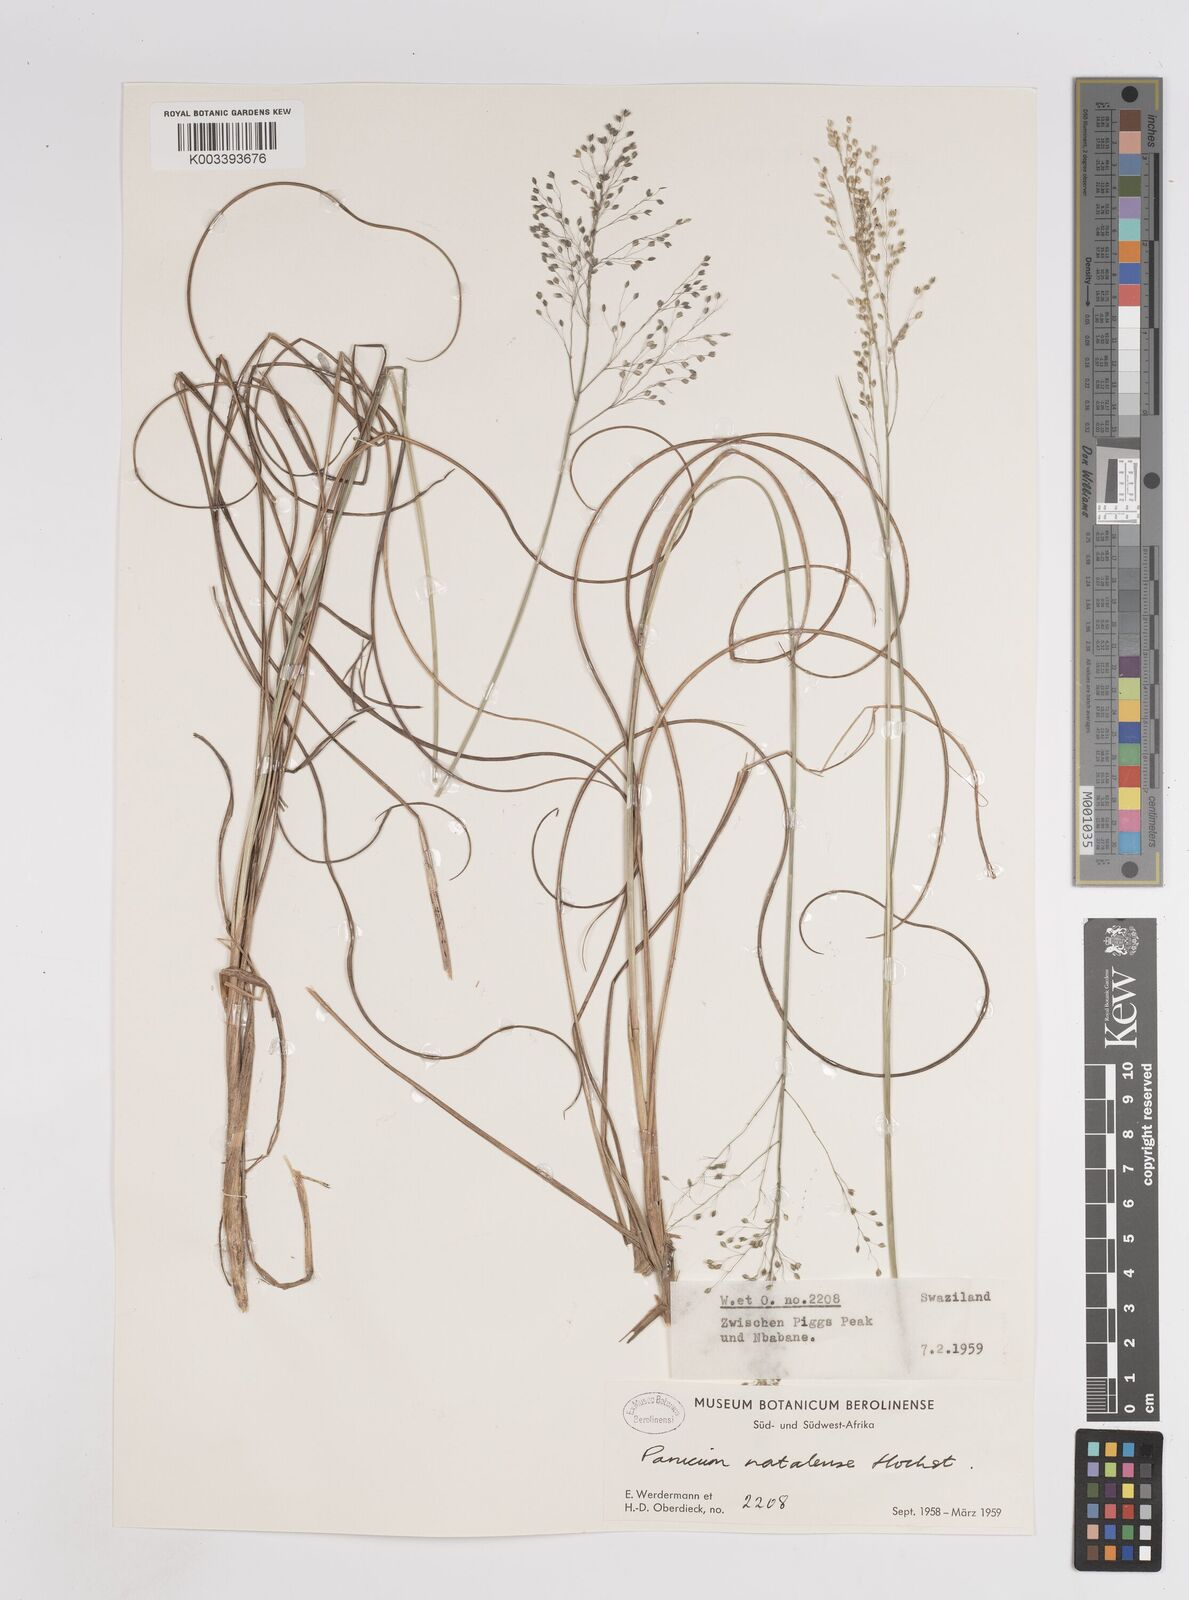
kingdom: Plantae
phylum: Tracheophyta
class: Liliopsida
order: Poales
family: Poaceae
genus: Trichanthecium
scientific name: Trichanthecium natalense
